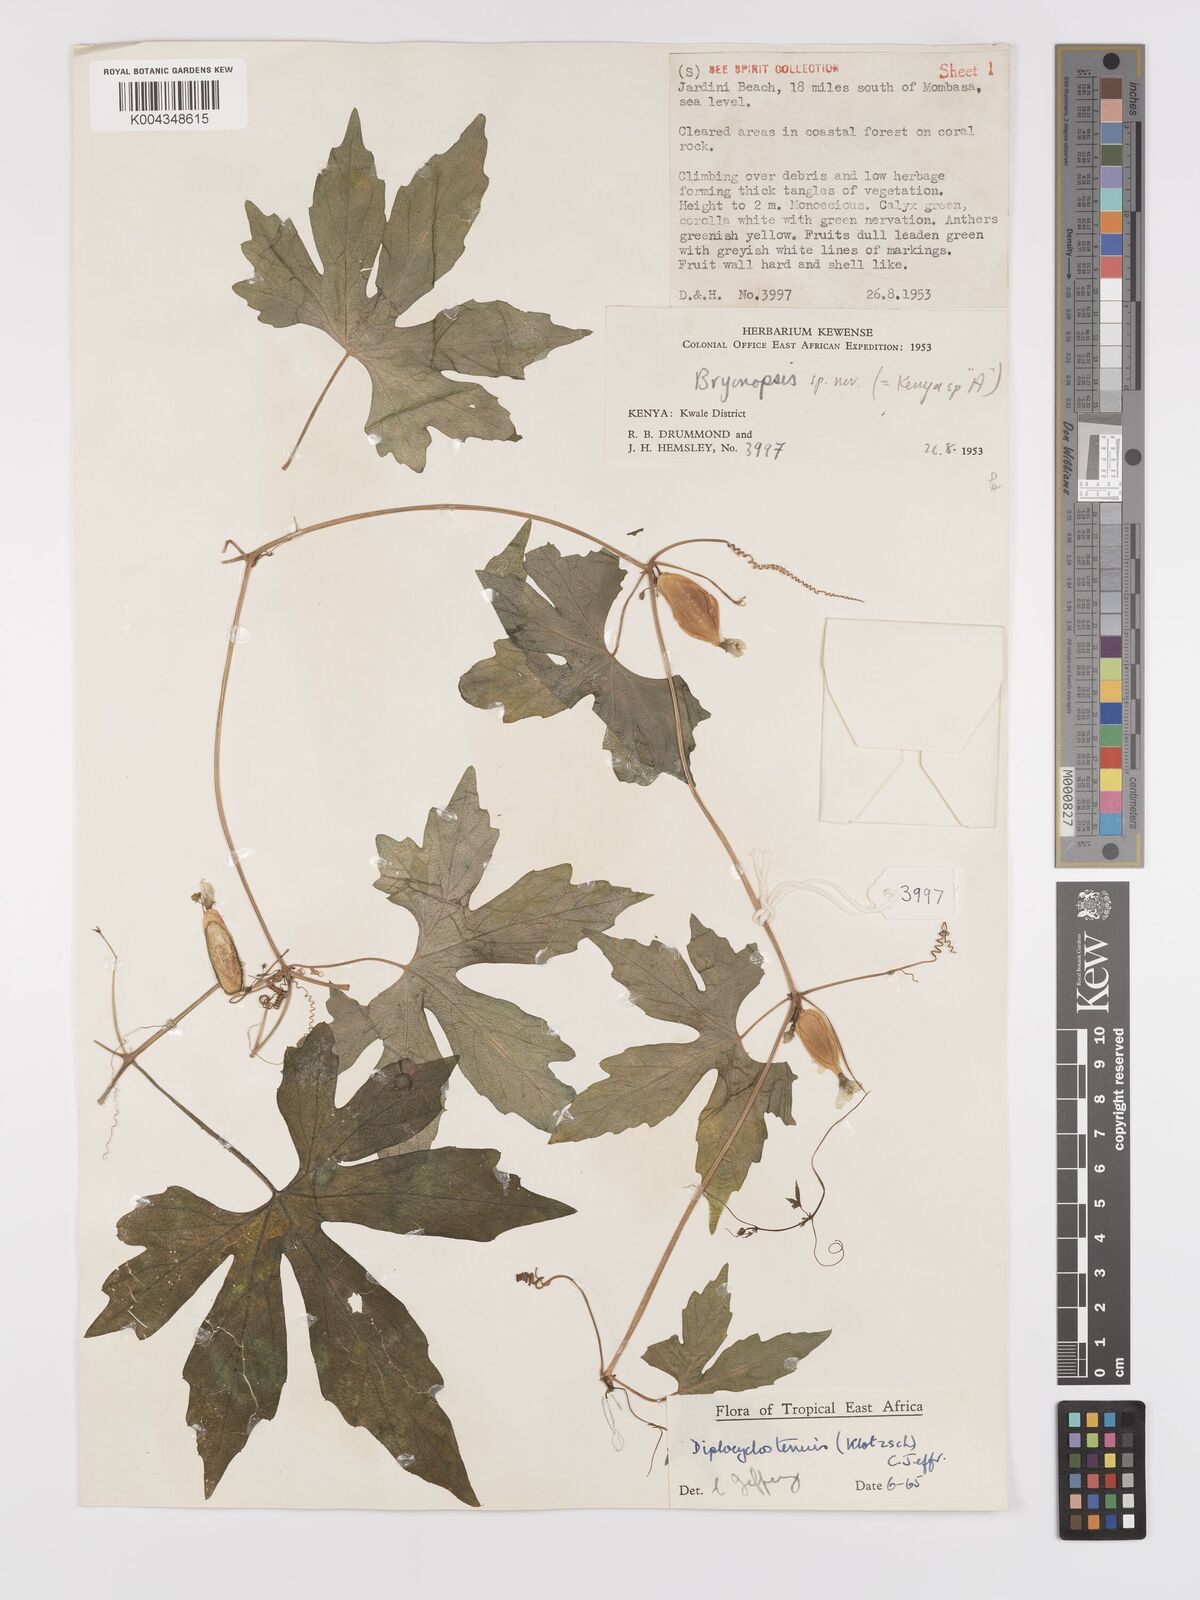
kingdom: Plantae
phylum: Tracheophyta
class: Magnoliopsida
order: Cucurbitales
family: Cucurbitaceae
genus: Diplocyclos
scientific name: Diplocyclos tenuis
